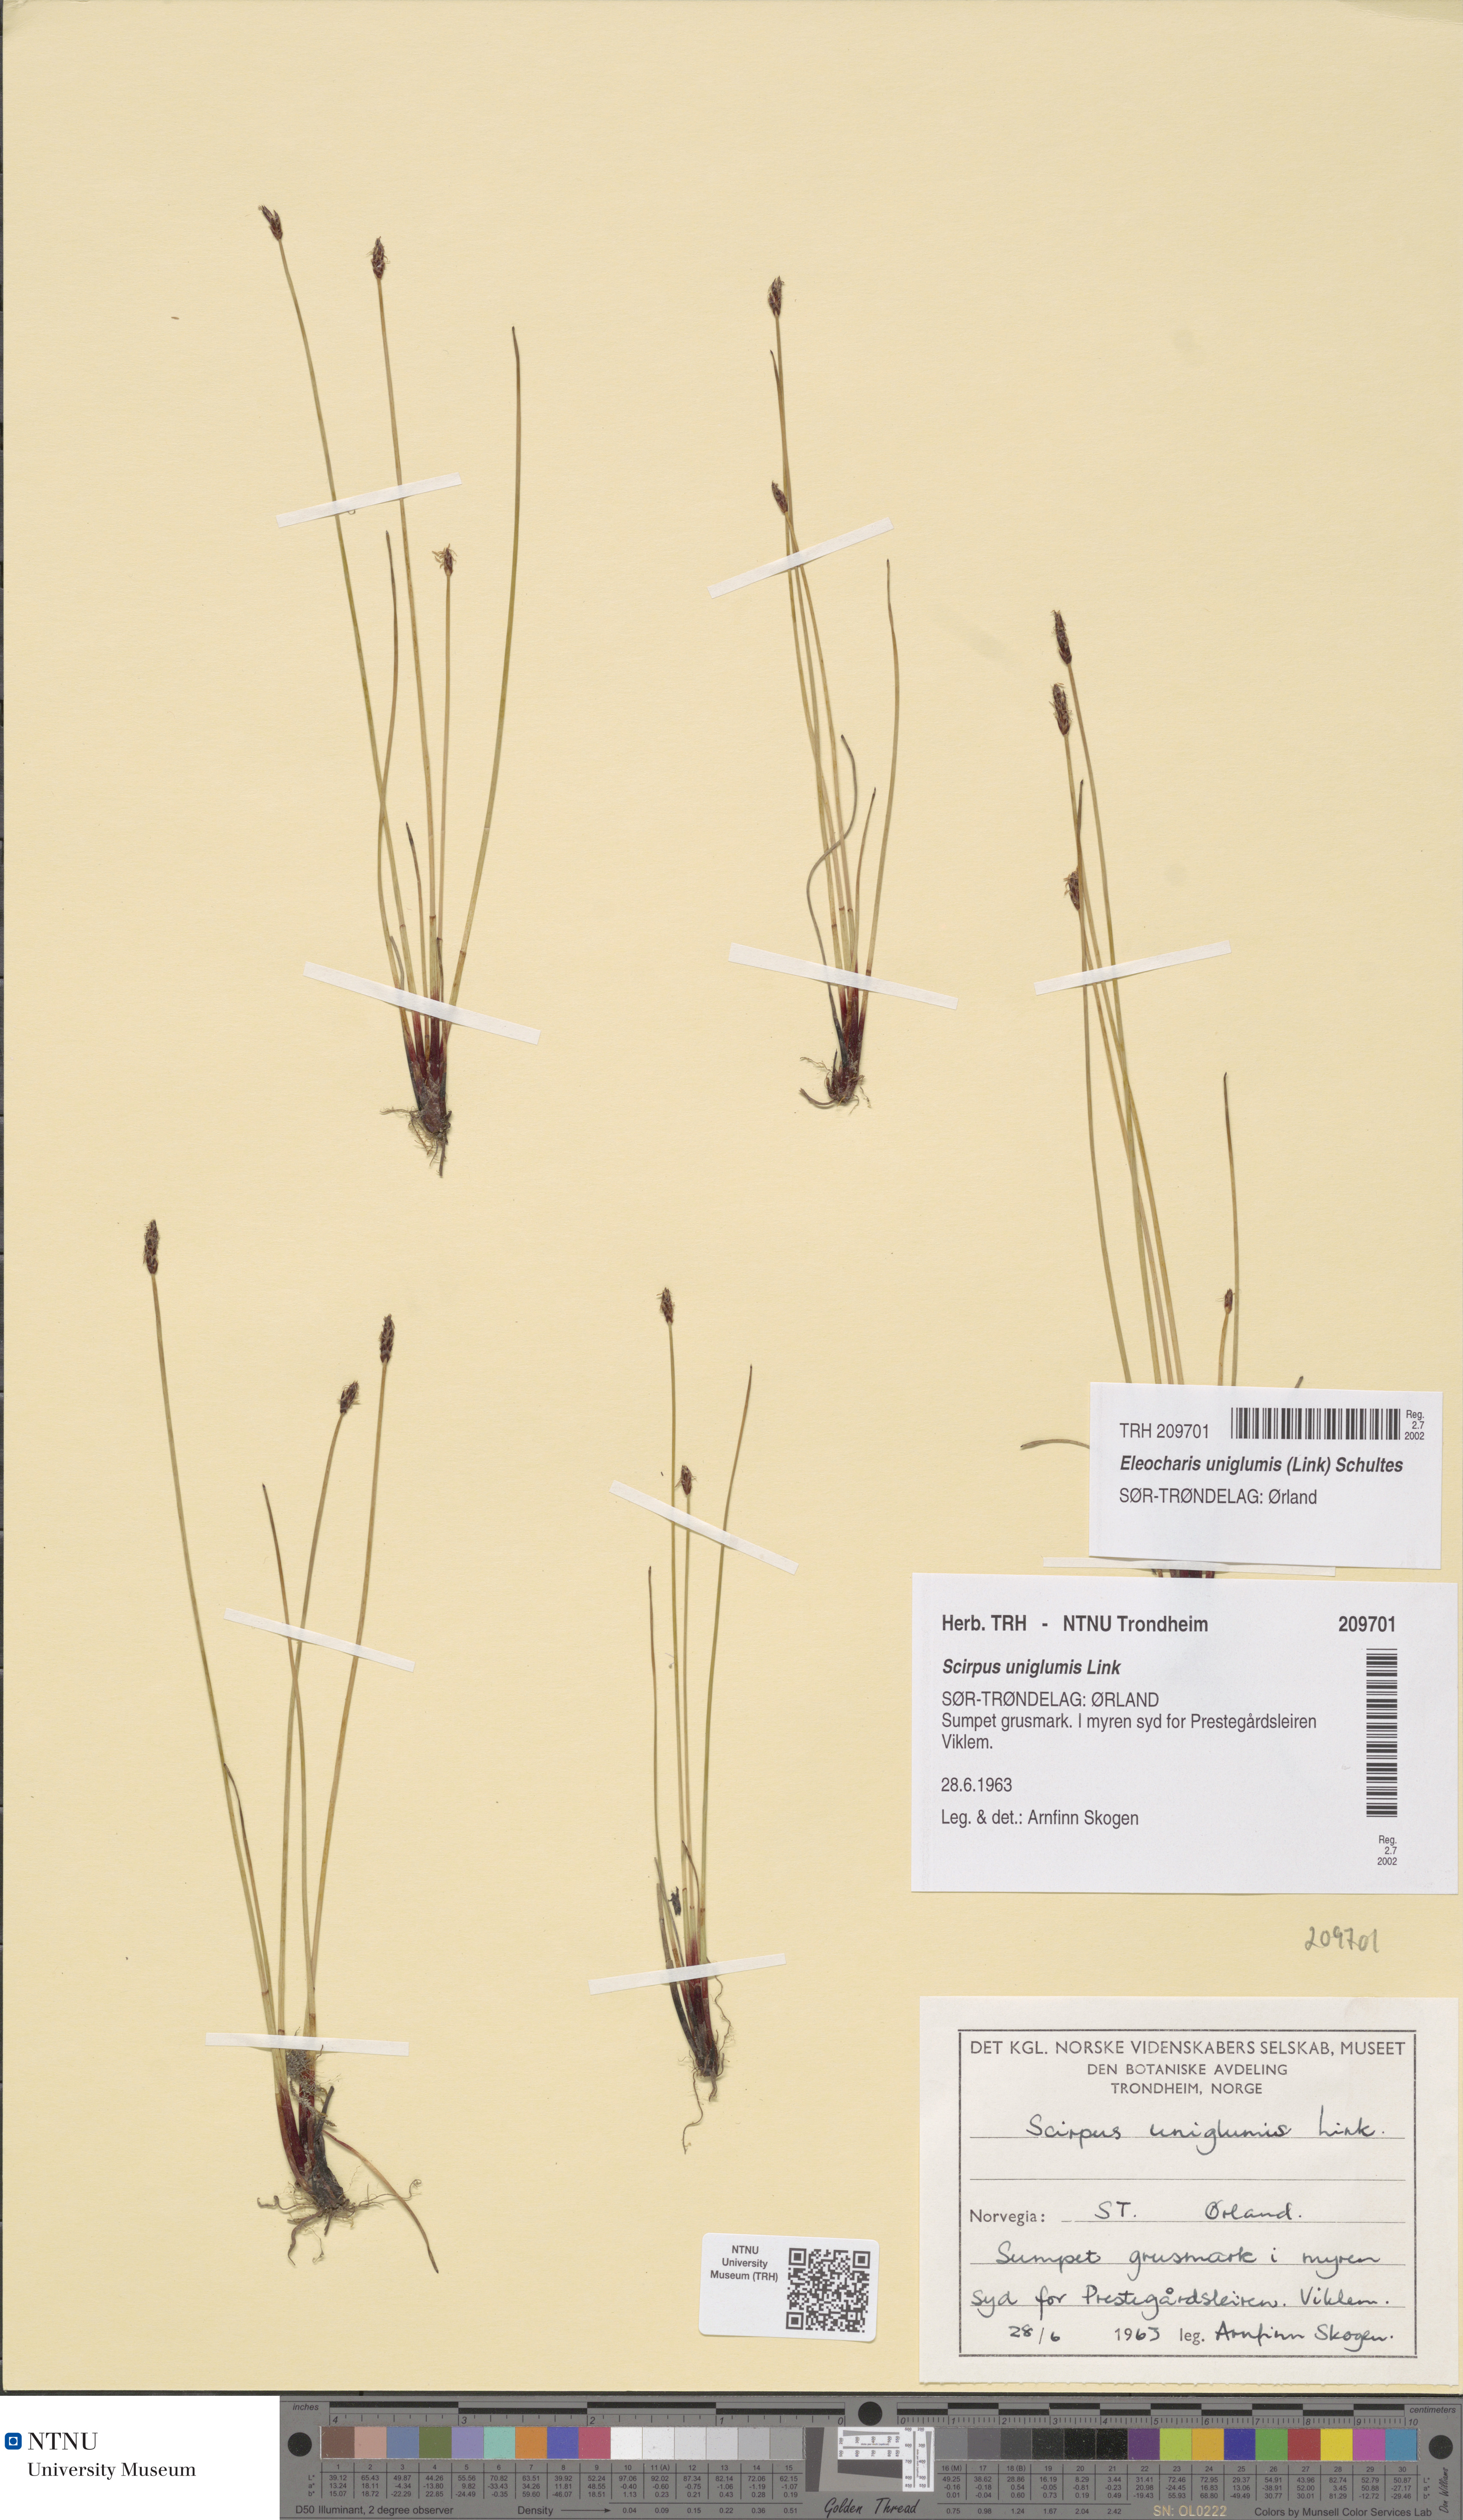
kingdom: Plantae
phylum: Tracheophyta
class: Liliopsida
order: Poales
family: Cyperaceae
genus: Eleocharis
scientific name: Eleocharis uniglumis
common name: Slender spike-rush
